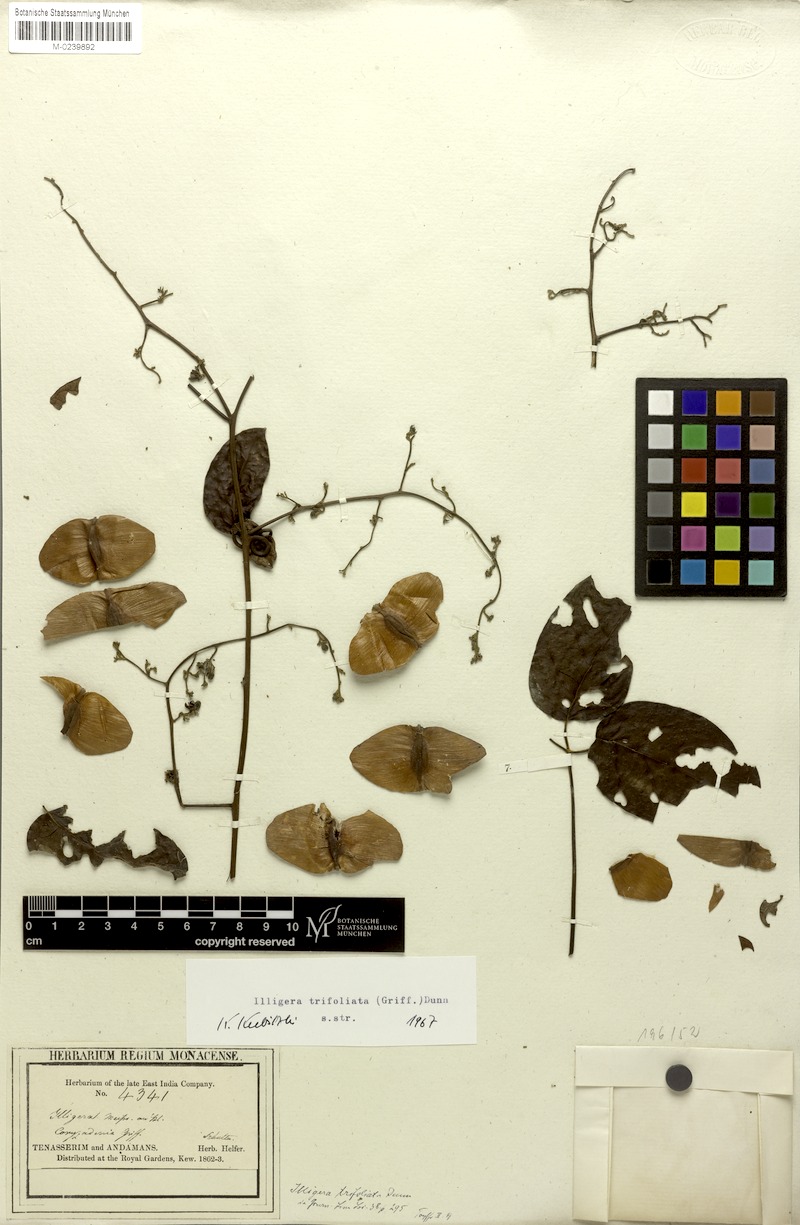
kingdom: Plantae
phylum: Tracheophyta
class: Magnoliopsida
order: Laurales
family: Hernandiaceae
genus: Illigera
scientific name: Illigera trifoliata
